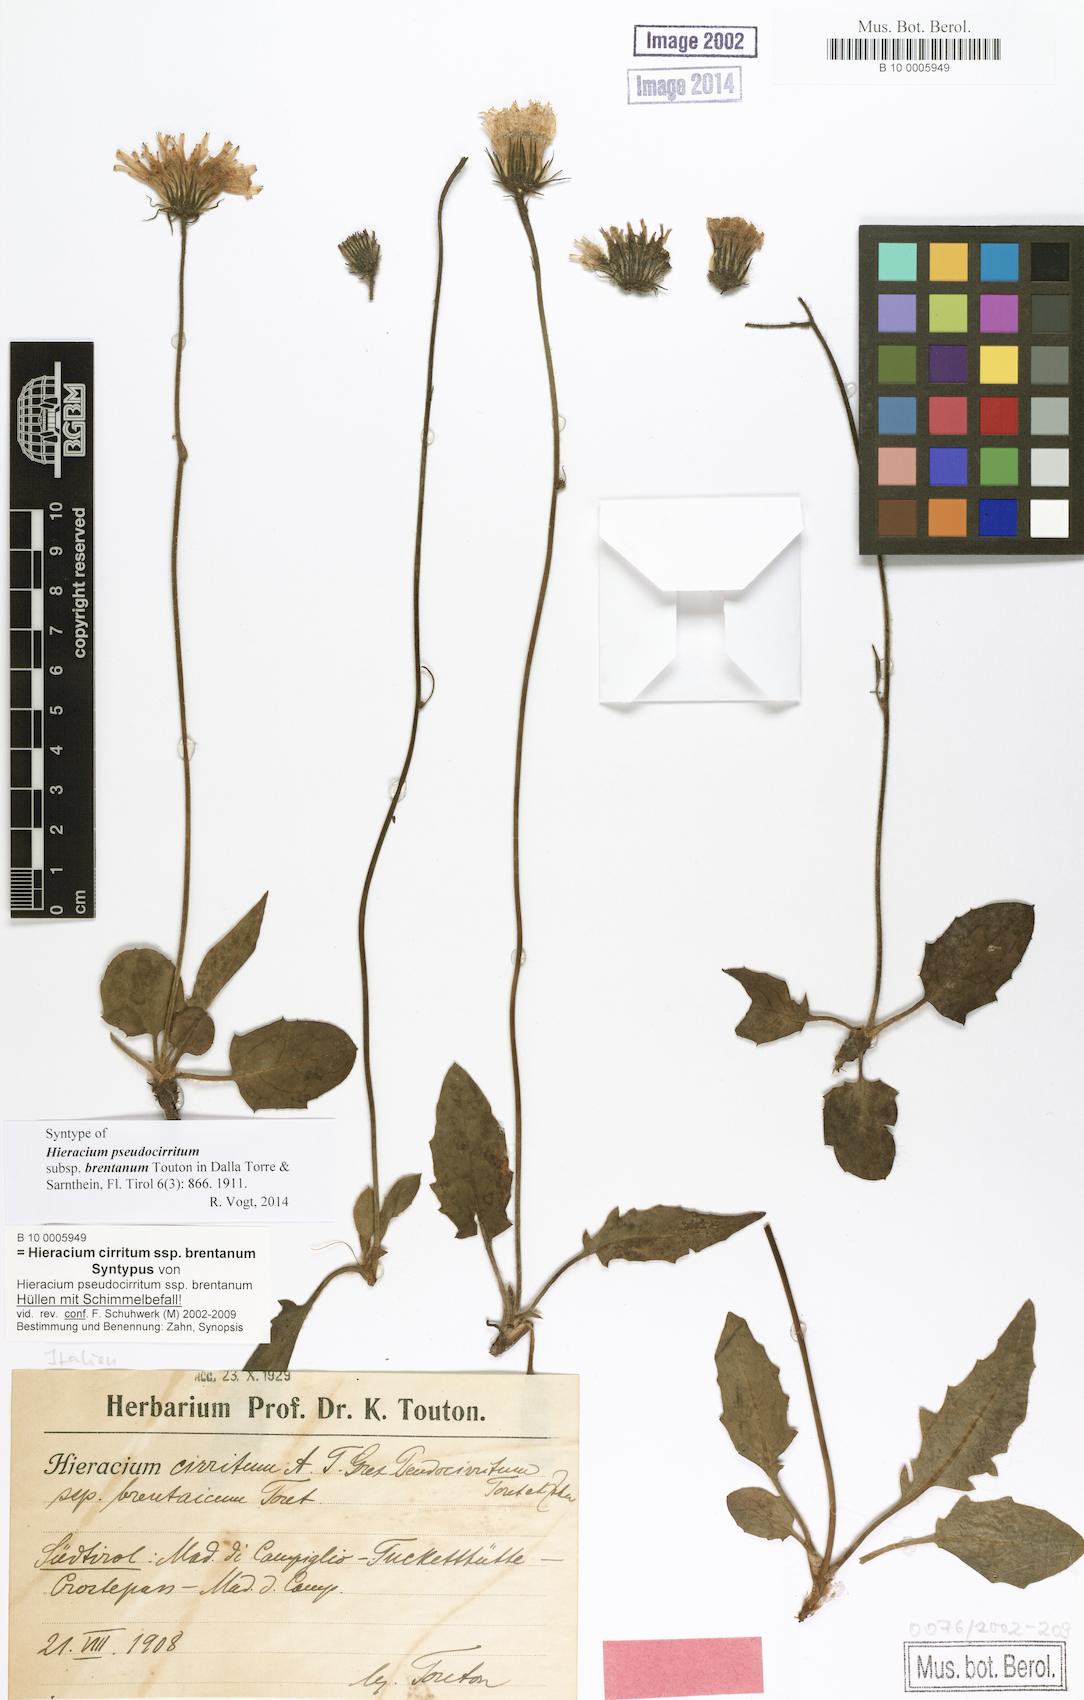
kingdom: Plantae
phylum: Tracheophyta
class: Magnoliopsida
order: Asterales
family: Asteraceae
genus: Hieracium
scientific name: Hieracium cirritum
